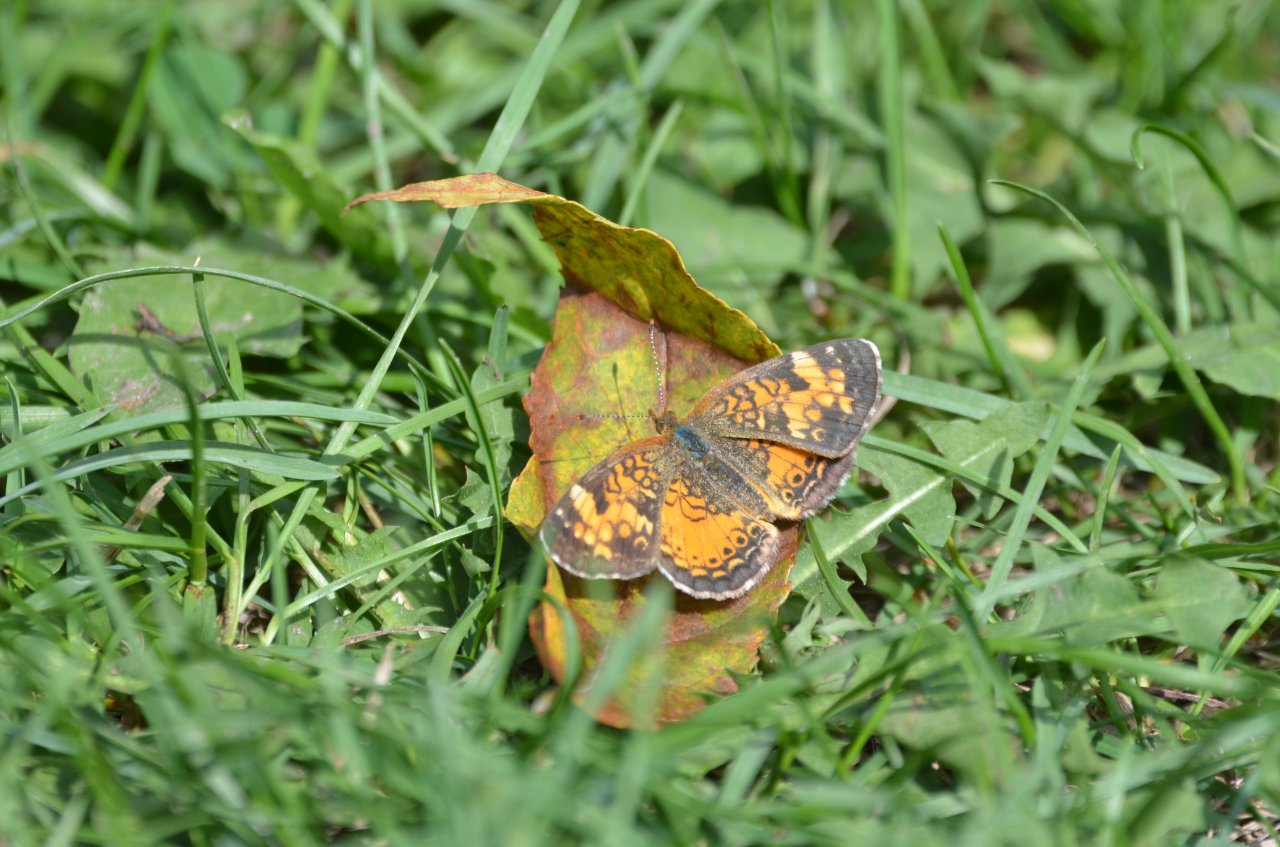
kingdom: Animalia
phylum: Arthropoda
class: Insecta
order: Lepidoptera
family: Nymphalidae
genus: Phyciodes
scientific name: Phyciodes tharos
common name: Northern Crescent
